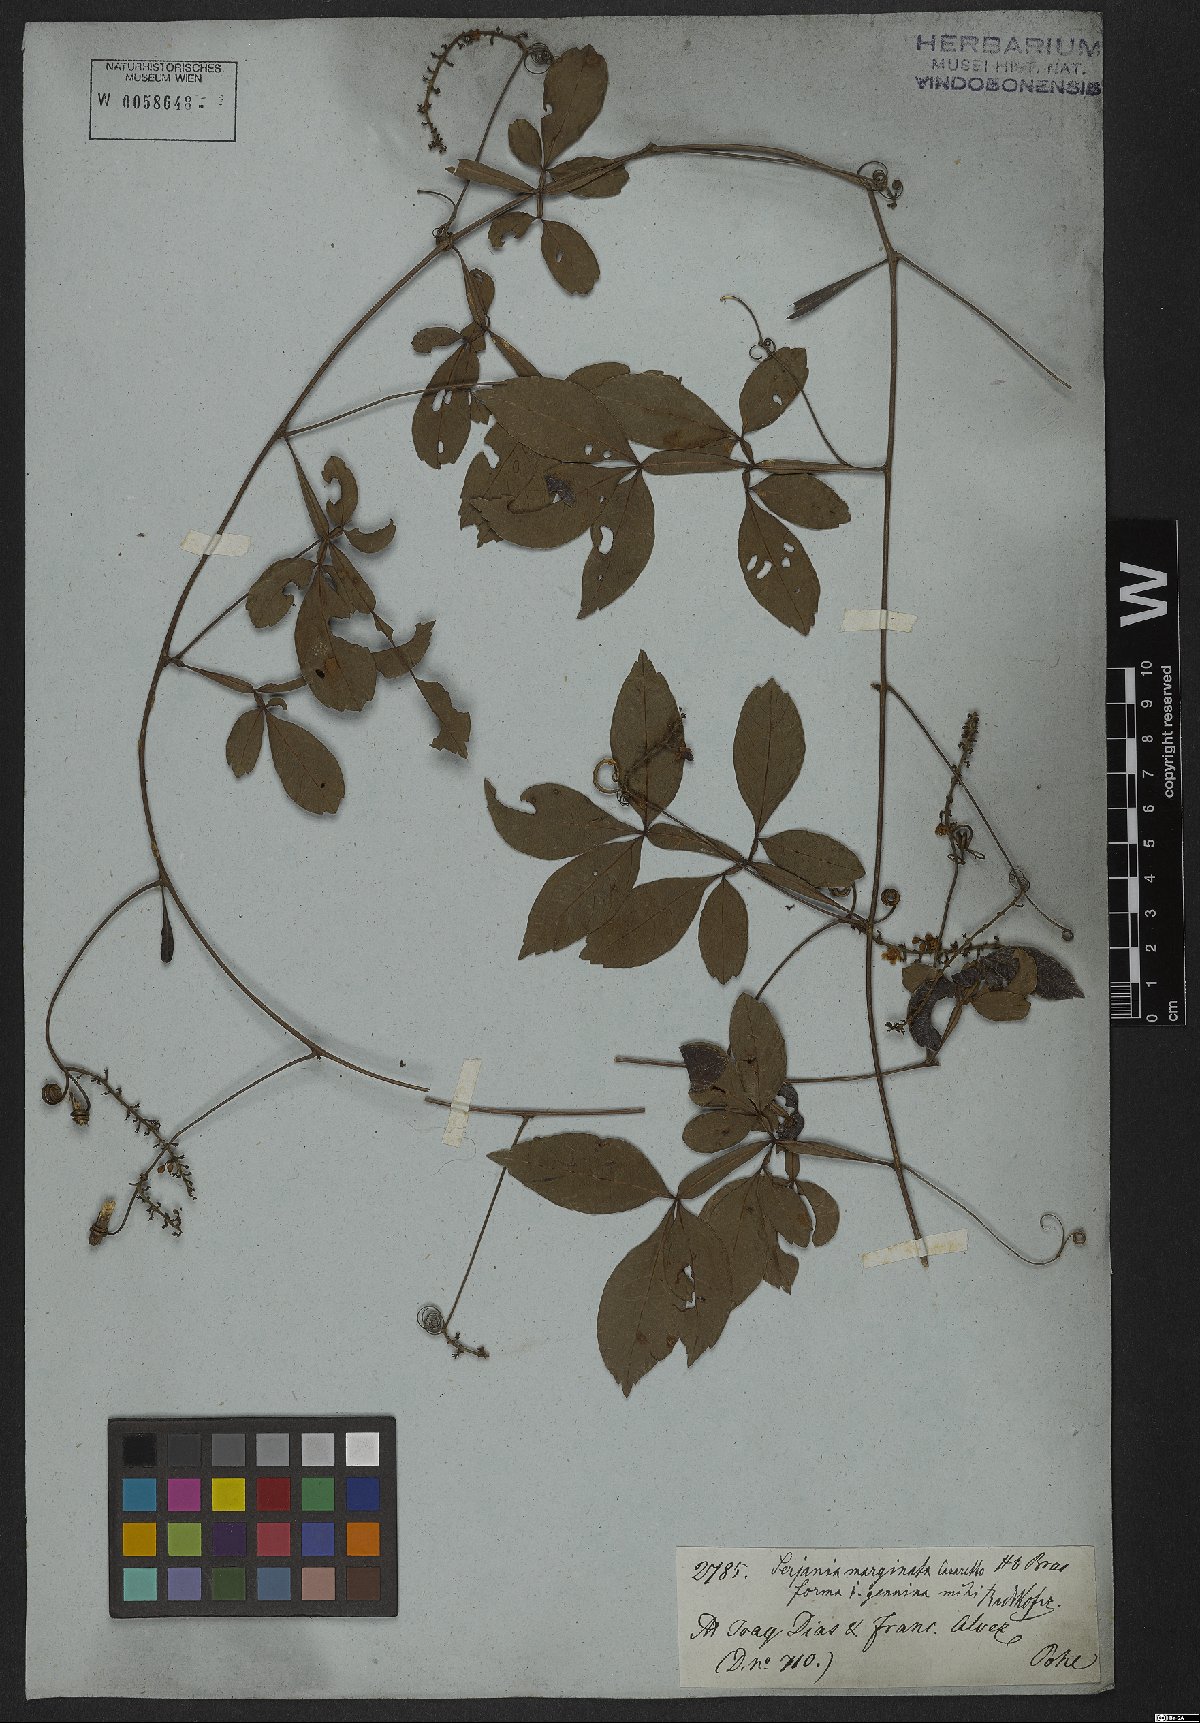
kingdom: Plantae
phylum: Tracheophyta
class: Magnoliopsida
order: Sapindales
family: Sapindaceae
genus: Serjania
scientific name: Serjania marginata
